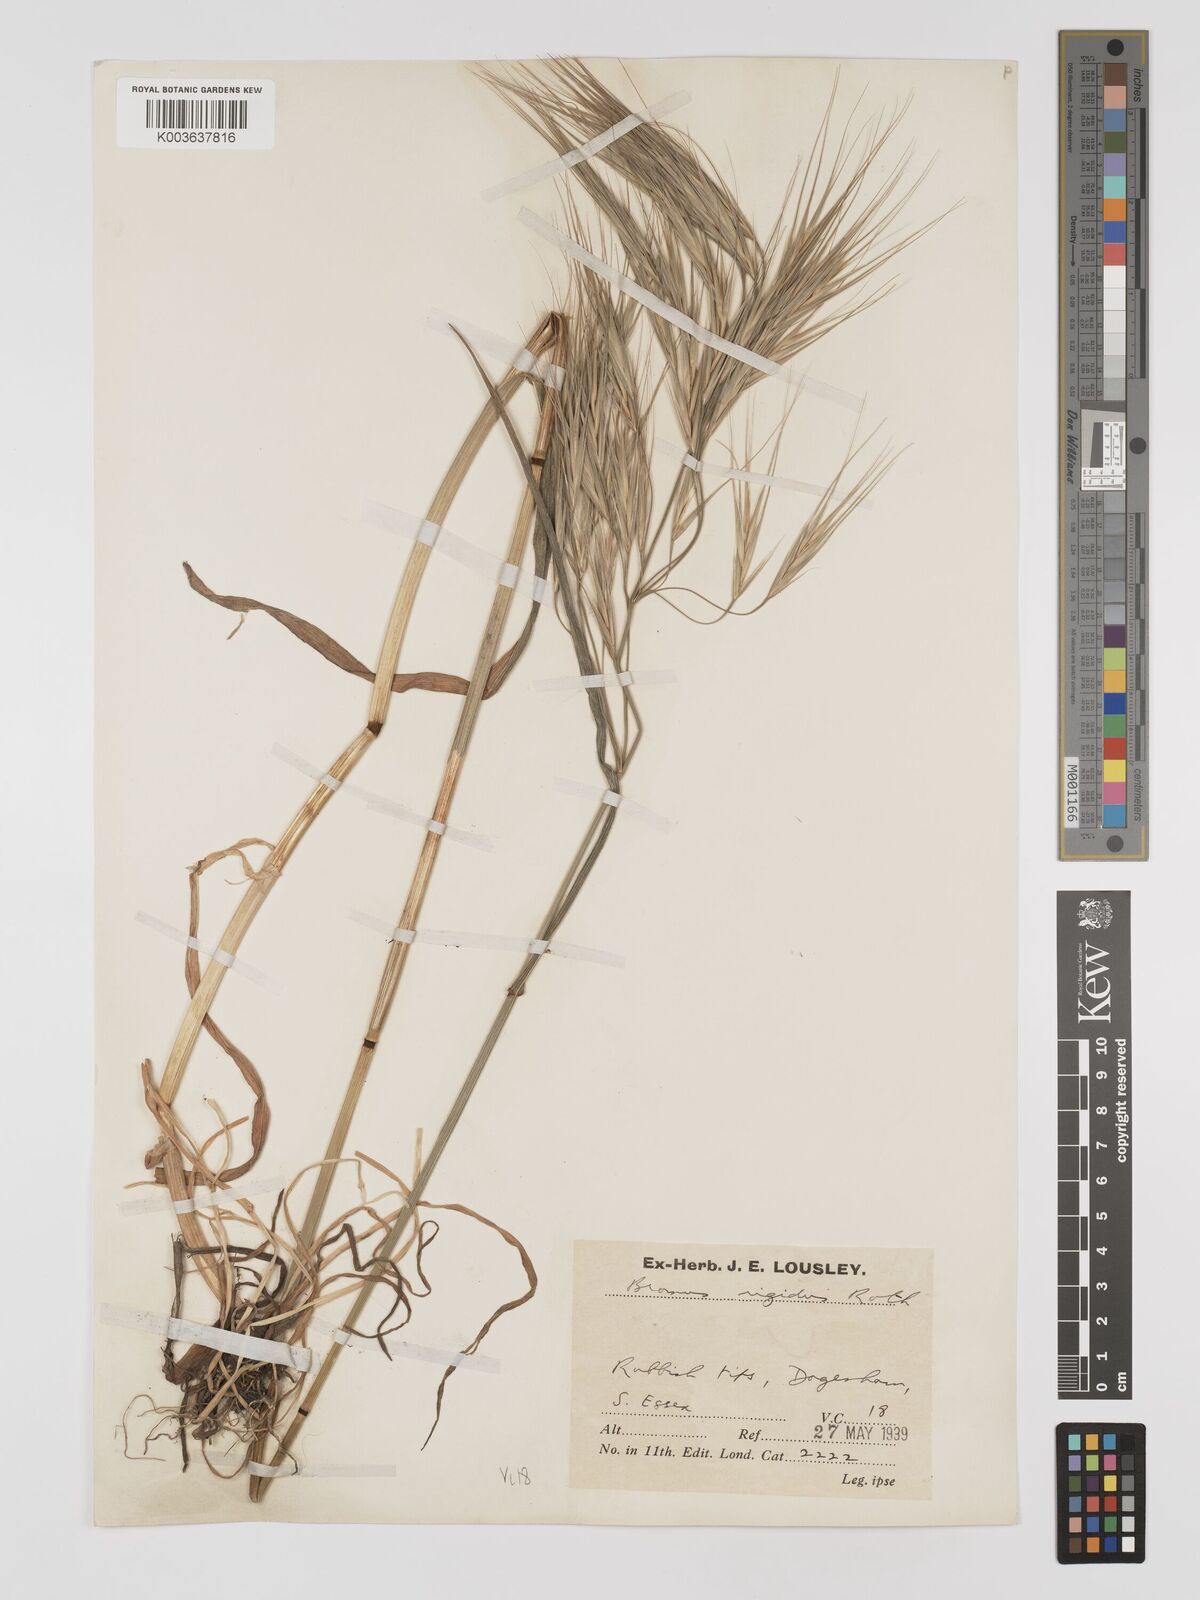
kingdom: Plantae
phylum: Tracheophyta
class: Liliopsida
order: Poales
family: Poaceae
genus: Bromus
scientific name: Bromus
